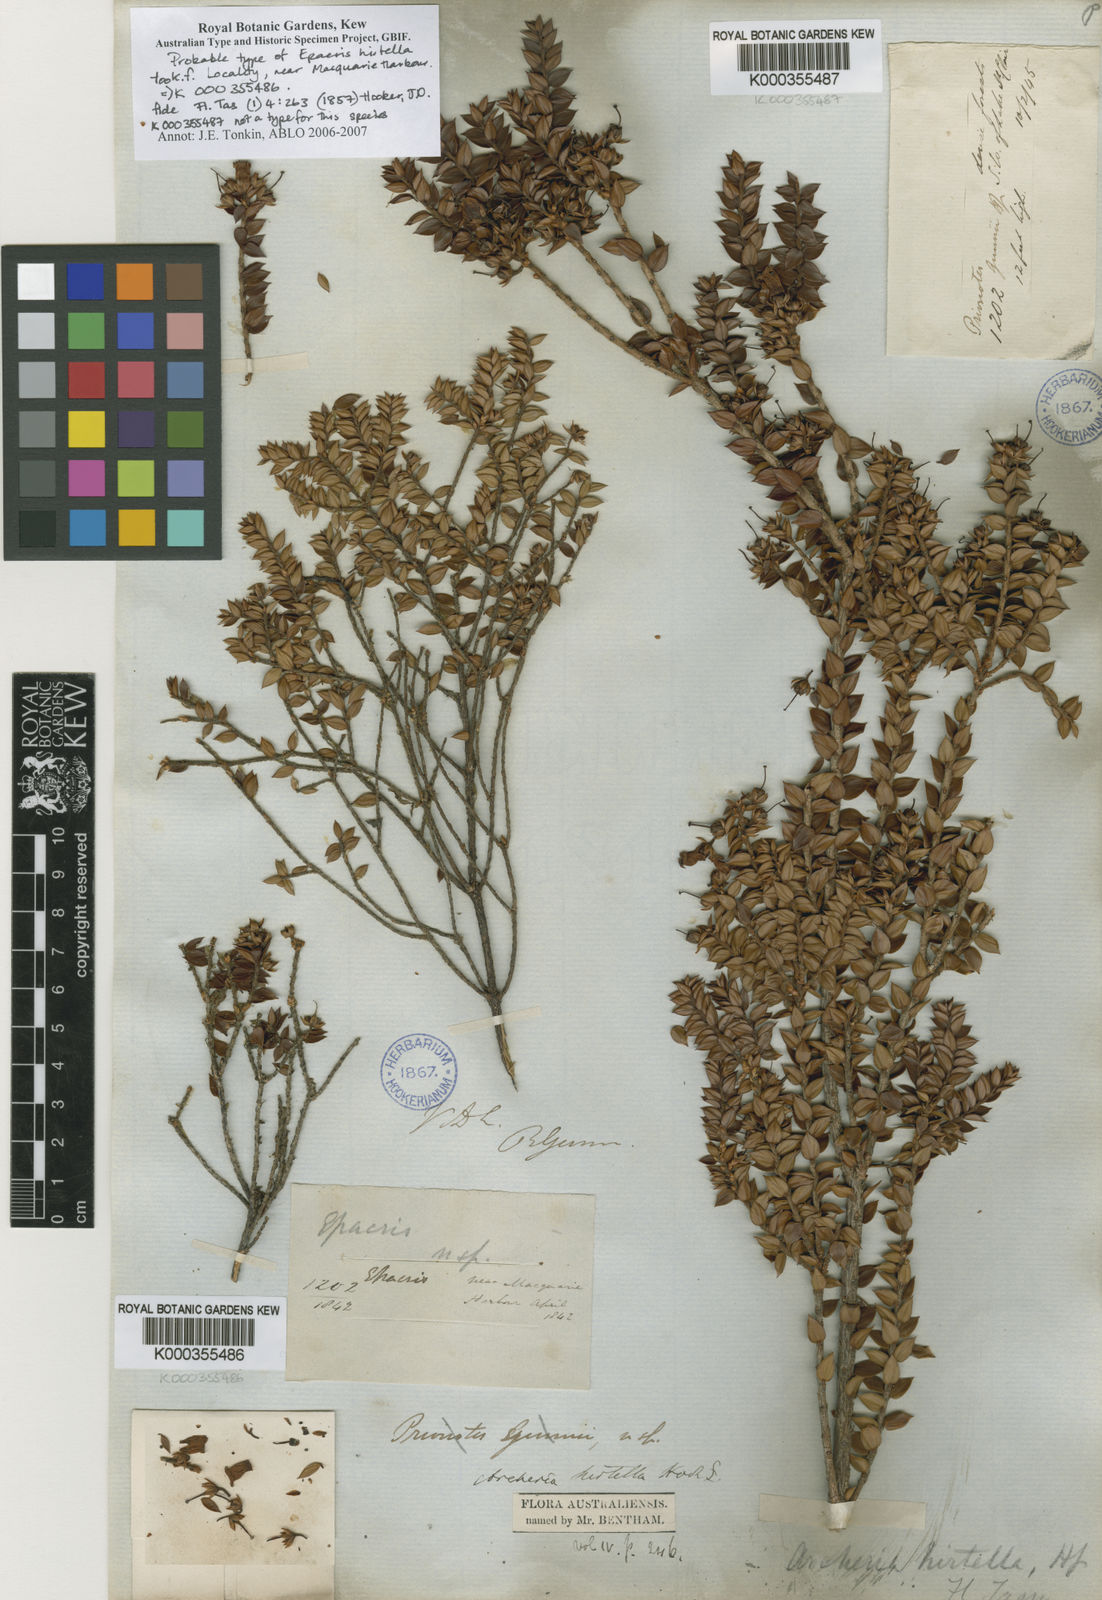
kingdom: Plantae
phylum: Tracheophyta
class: Magnoliopsida
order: Ericales
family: Ericaceae
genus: Archeria
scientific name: Archeria hirtella
